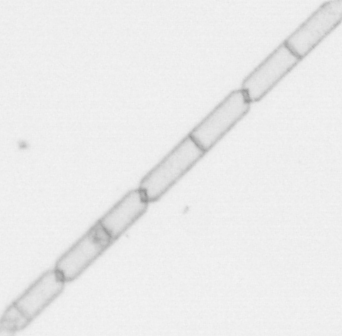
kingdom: Chromista
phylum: Ochrophyta
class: Bacillariophyceae
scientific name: Bacillariophyceae
